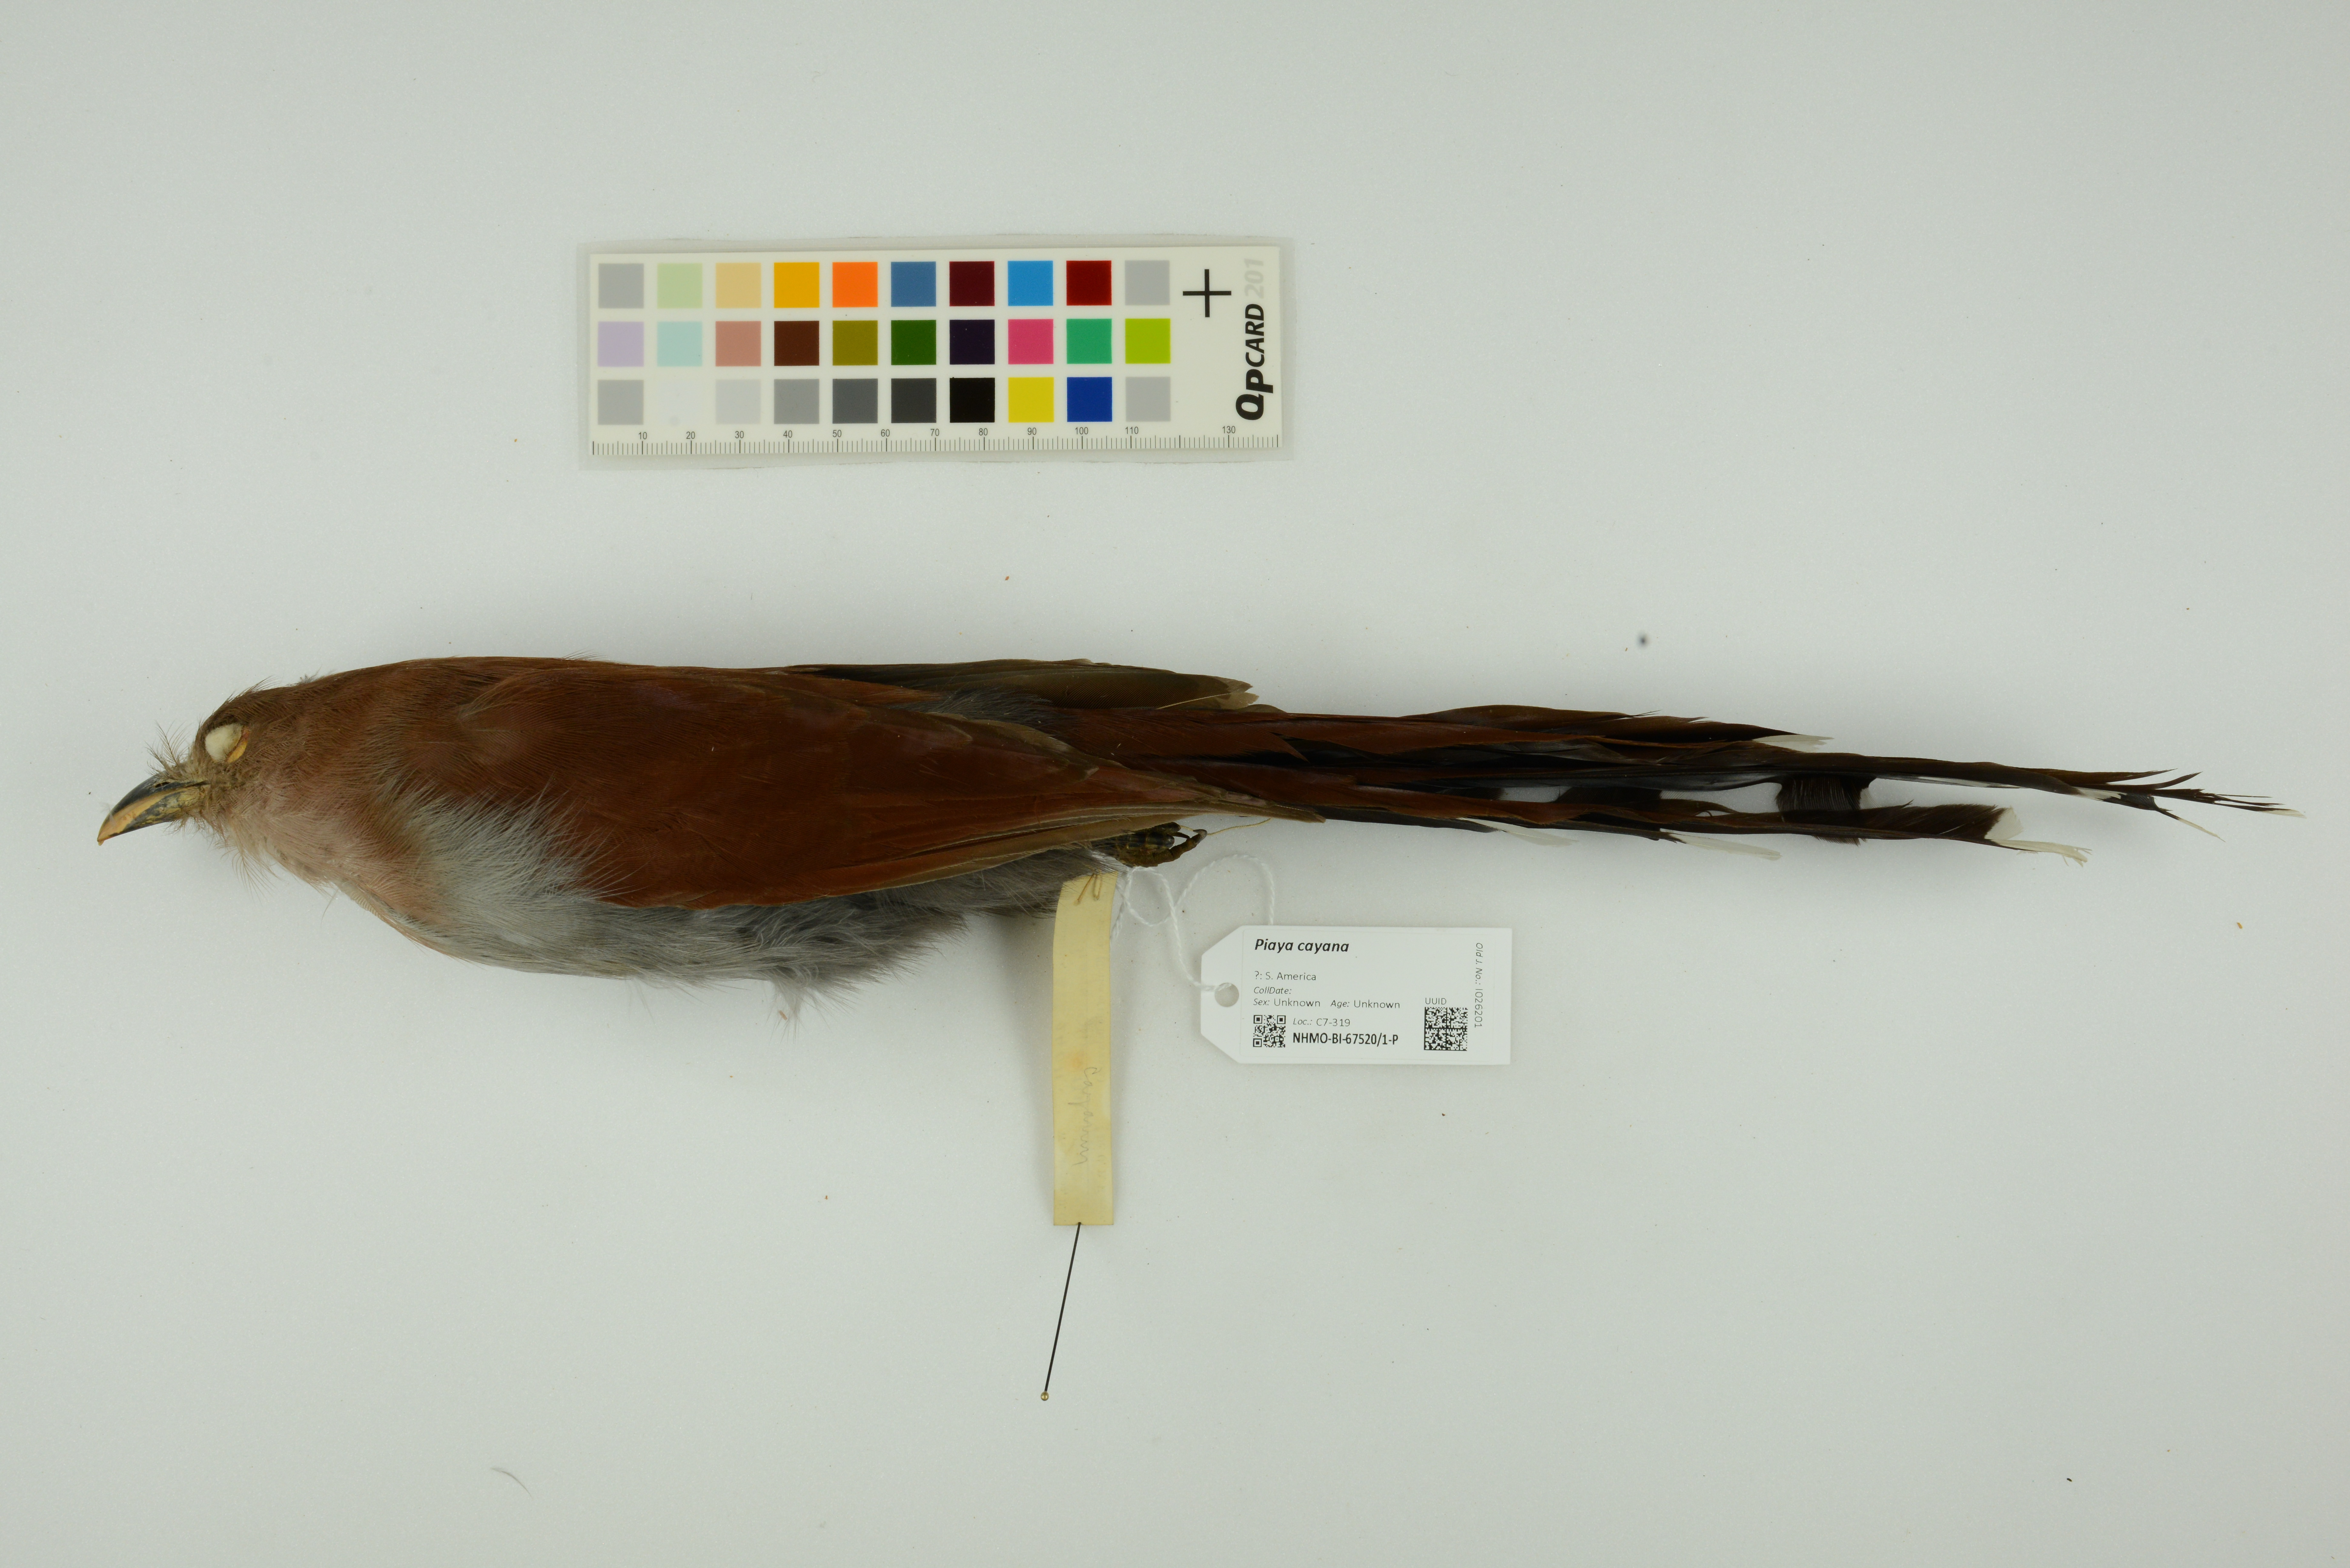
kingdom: Animalia
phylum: Chordata
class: Aves
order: Cuculiformes
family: Cuculidae
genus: Piaya
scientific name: Piaya cayana
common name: Squirrel cuckoo
